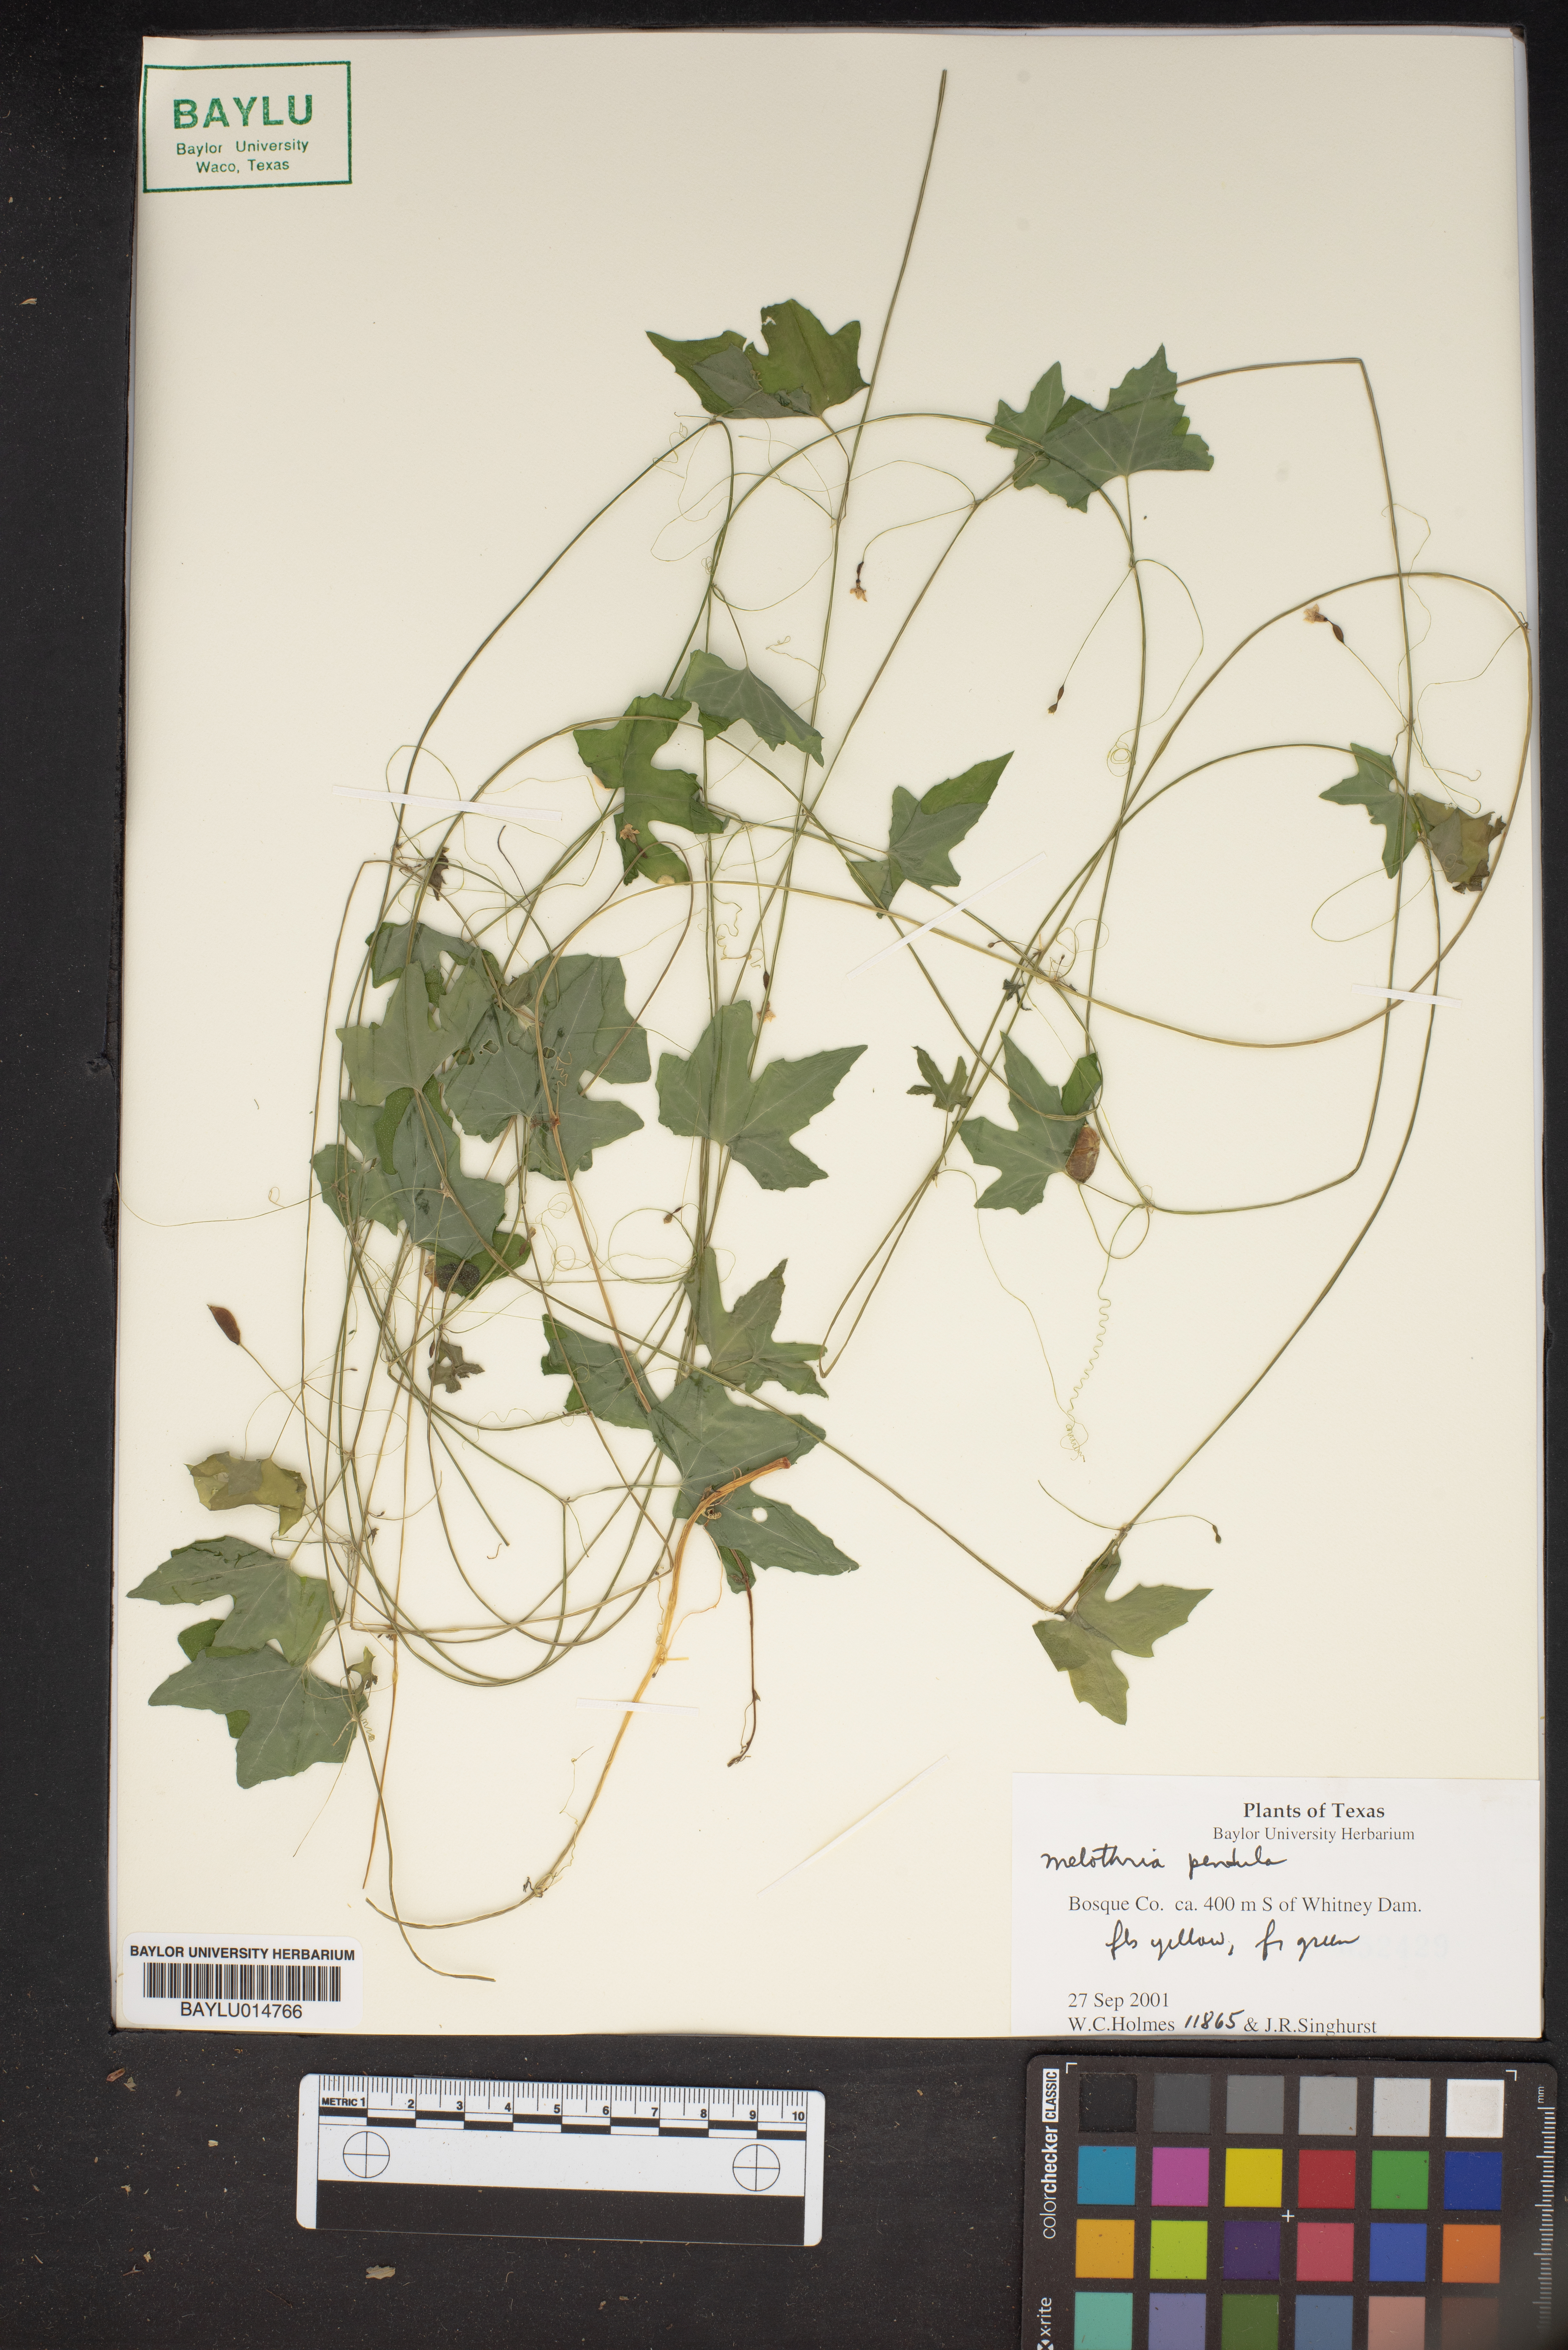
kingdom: Plantae
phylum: Tracheophyta
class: Magnoliopsida
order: Cucurbitales
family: Cucurbitaceae
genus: Melothria
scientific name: Melothria pendula
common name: Creeping-cucumber
